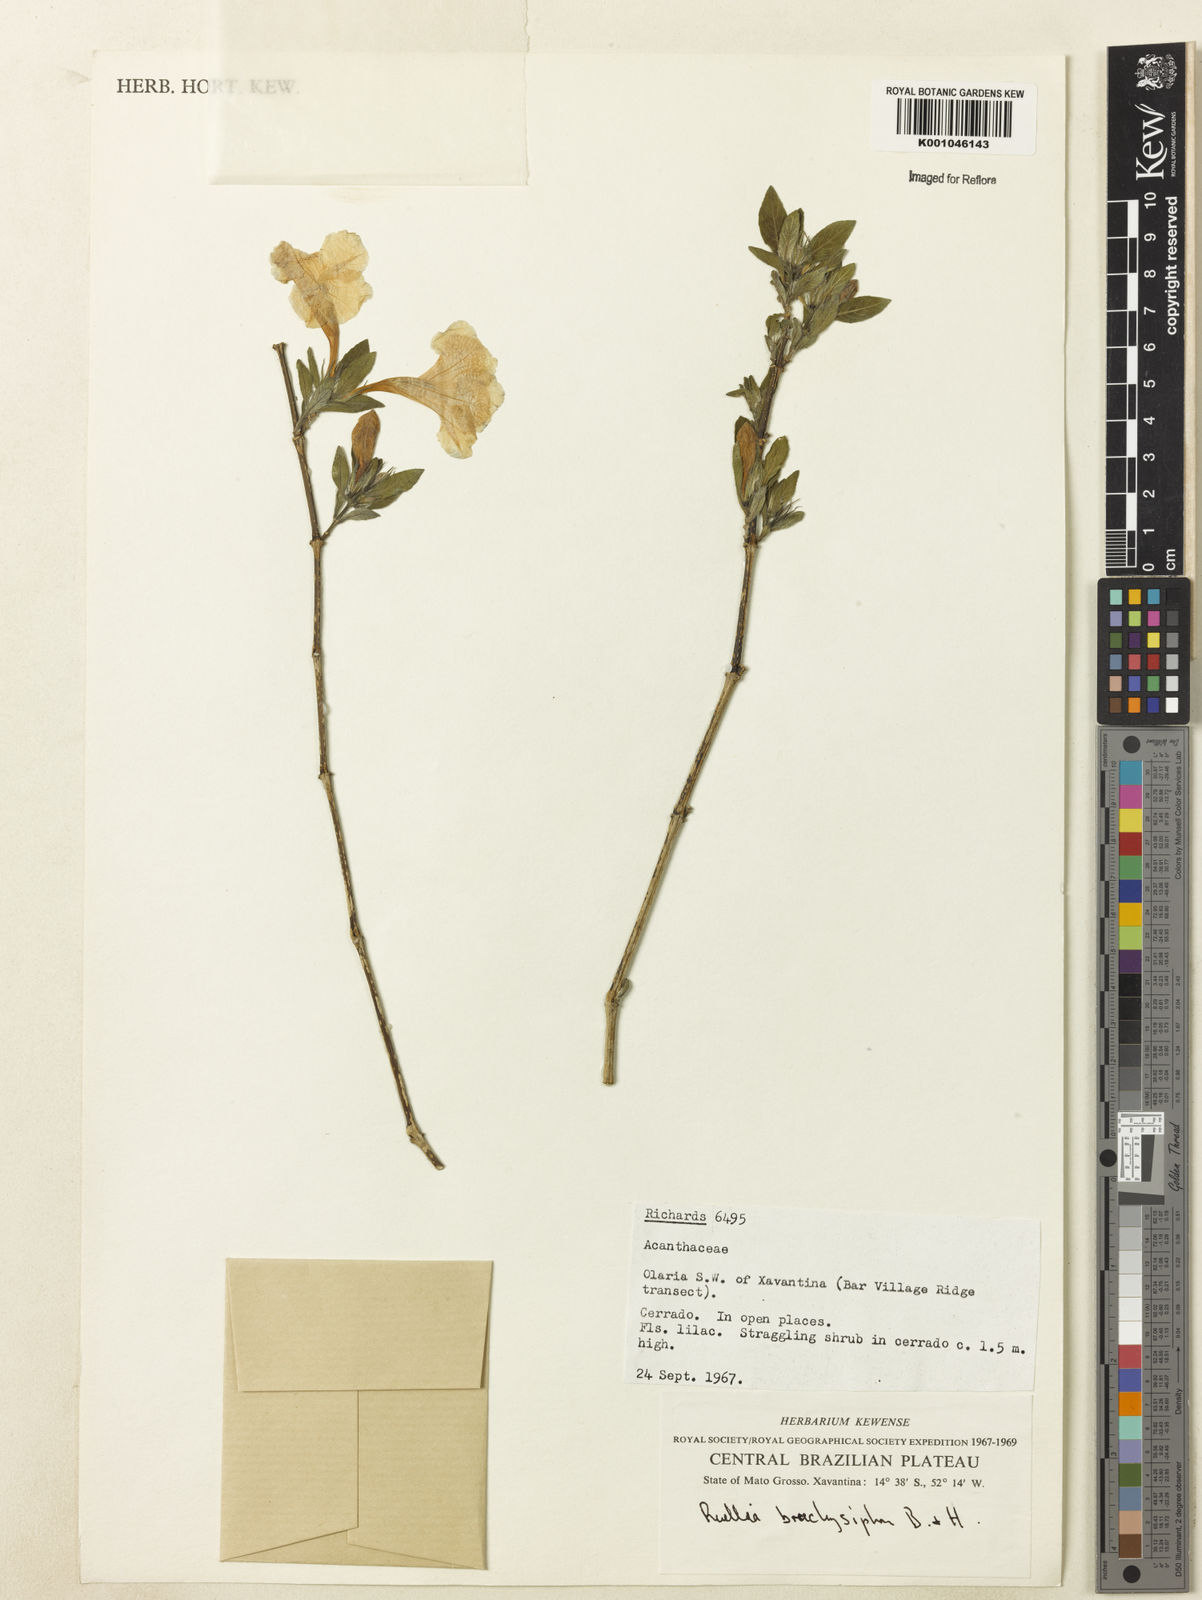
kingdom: Plantae
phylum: Tracheophyta
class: Magnoliopsida
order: Lamiales
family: Acanthaceae
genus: Ruellia
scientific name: Ruellia
